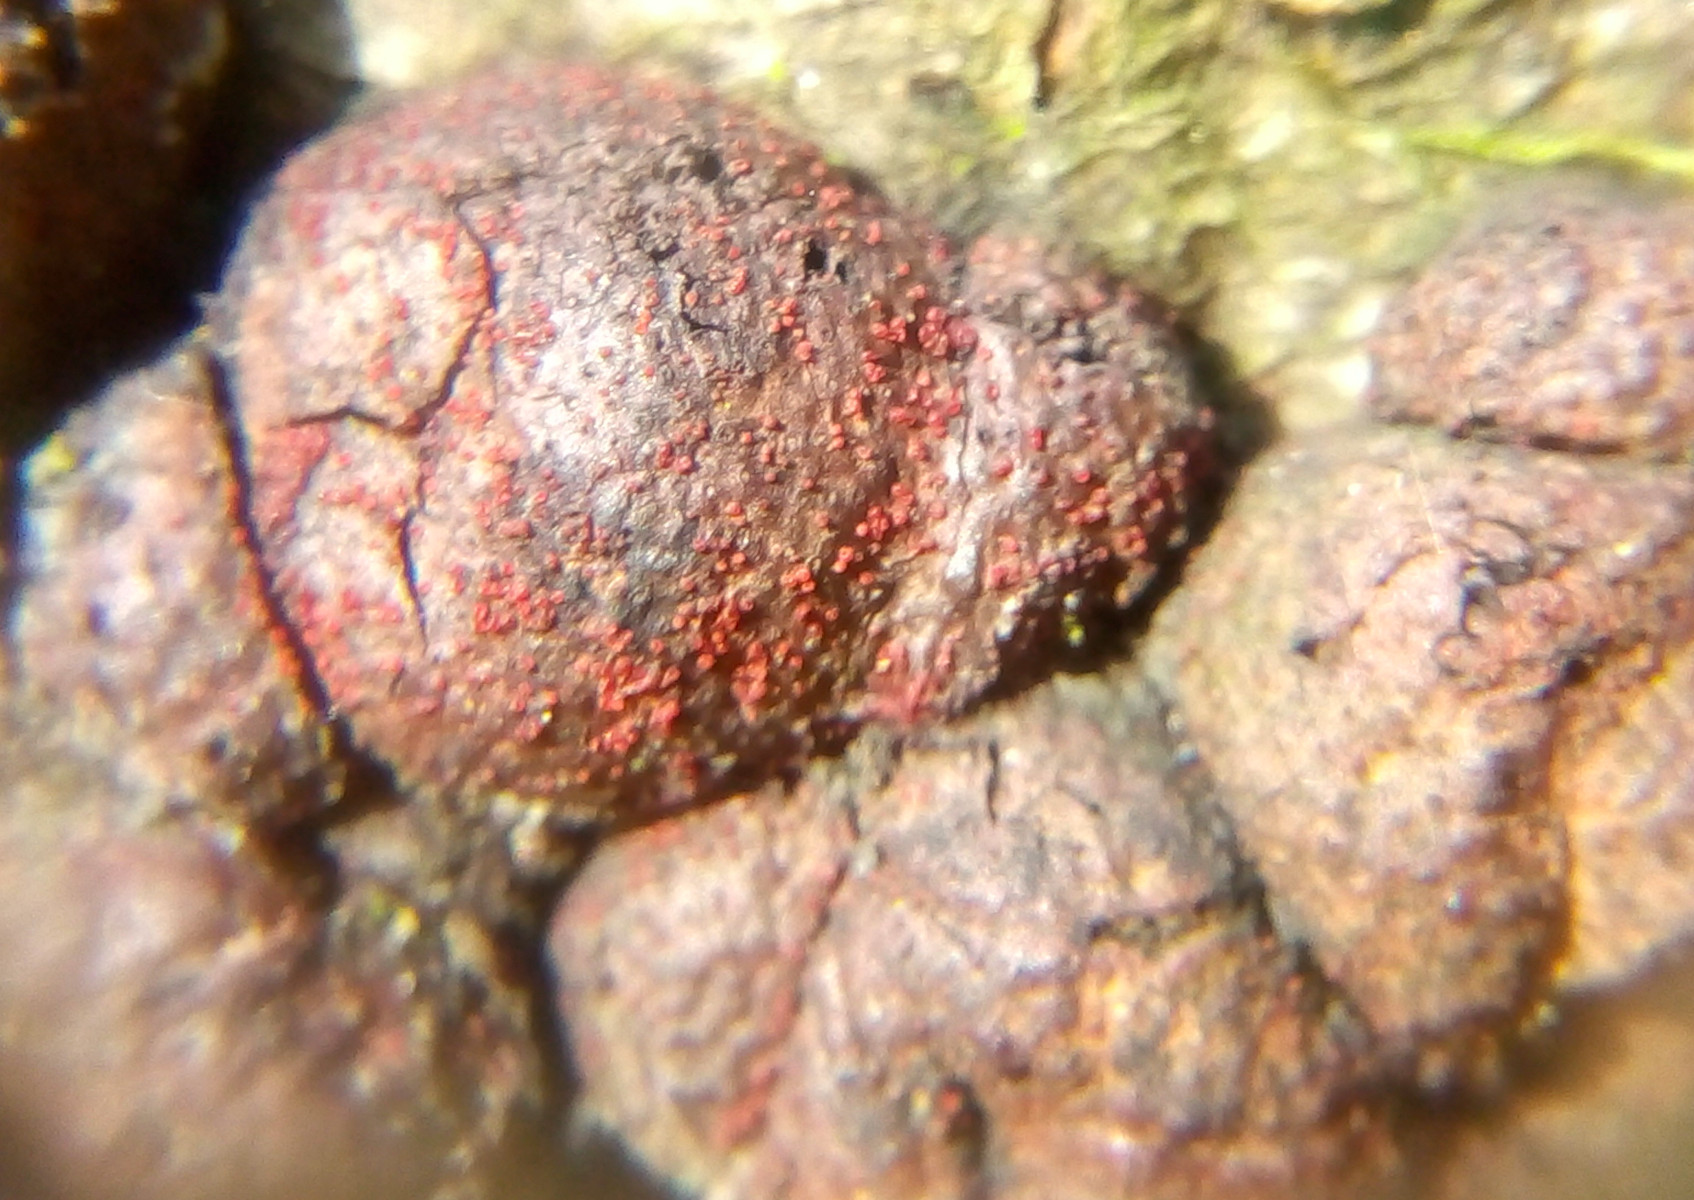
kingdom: Fungi
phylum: Ascomycota
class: Sordariomycetes
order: Hypocreales
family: Nectriaceae
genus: Cosmospora
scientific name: Cosmospora arxii
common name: kuljordbær-cinnobersvamp
